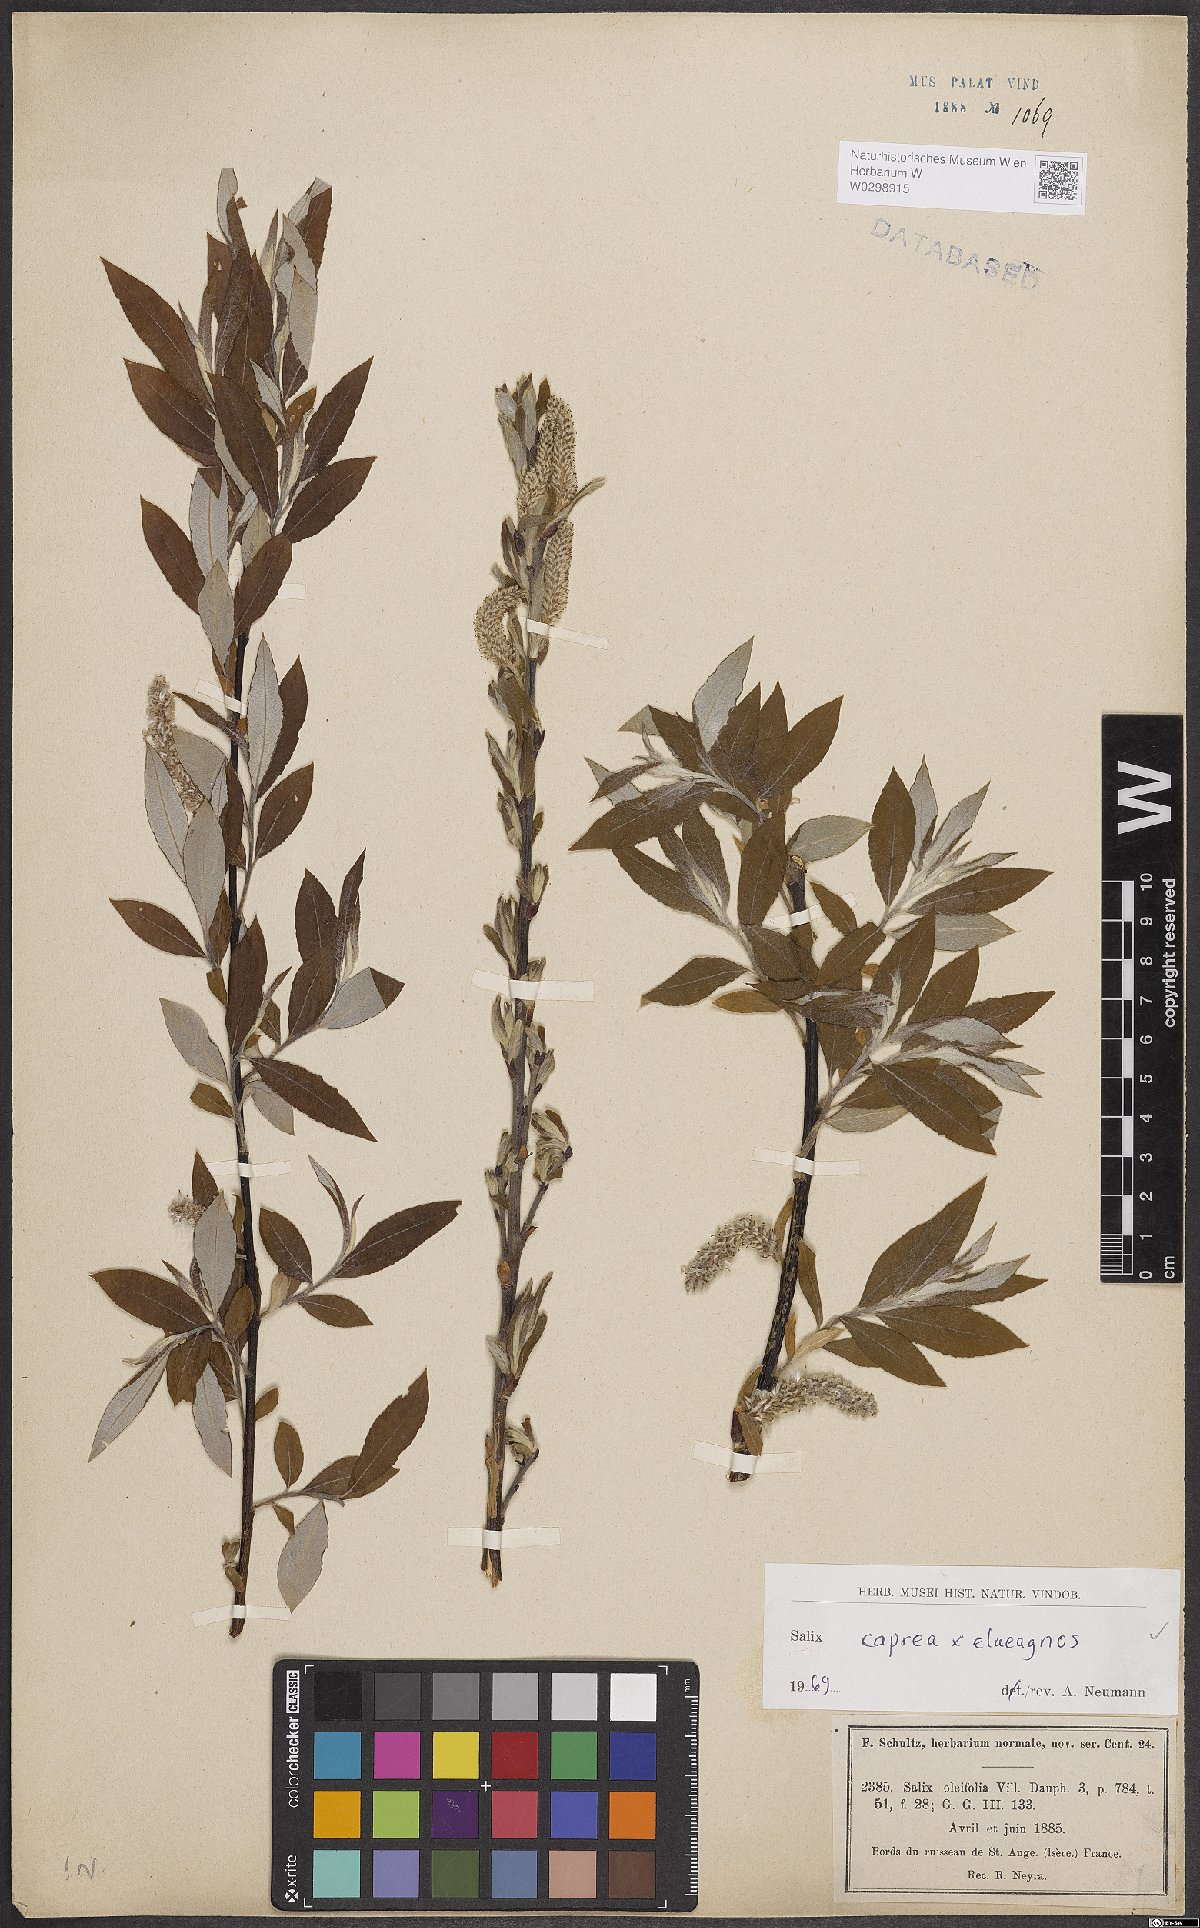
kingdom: Plantae
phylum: Tracheophyta
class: Magnoliopsida
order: Malpighiales
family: Salicaceae
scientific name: Salicaceae
